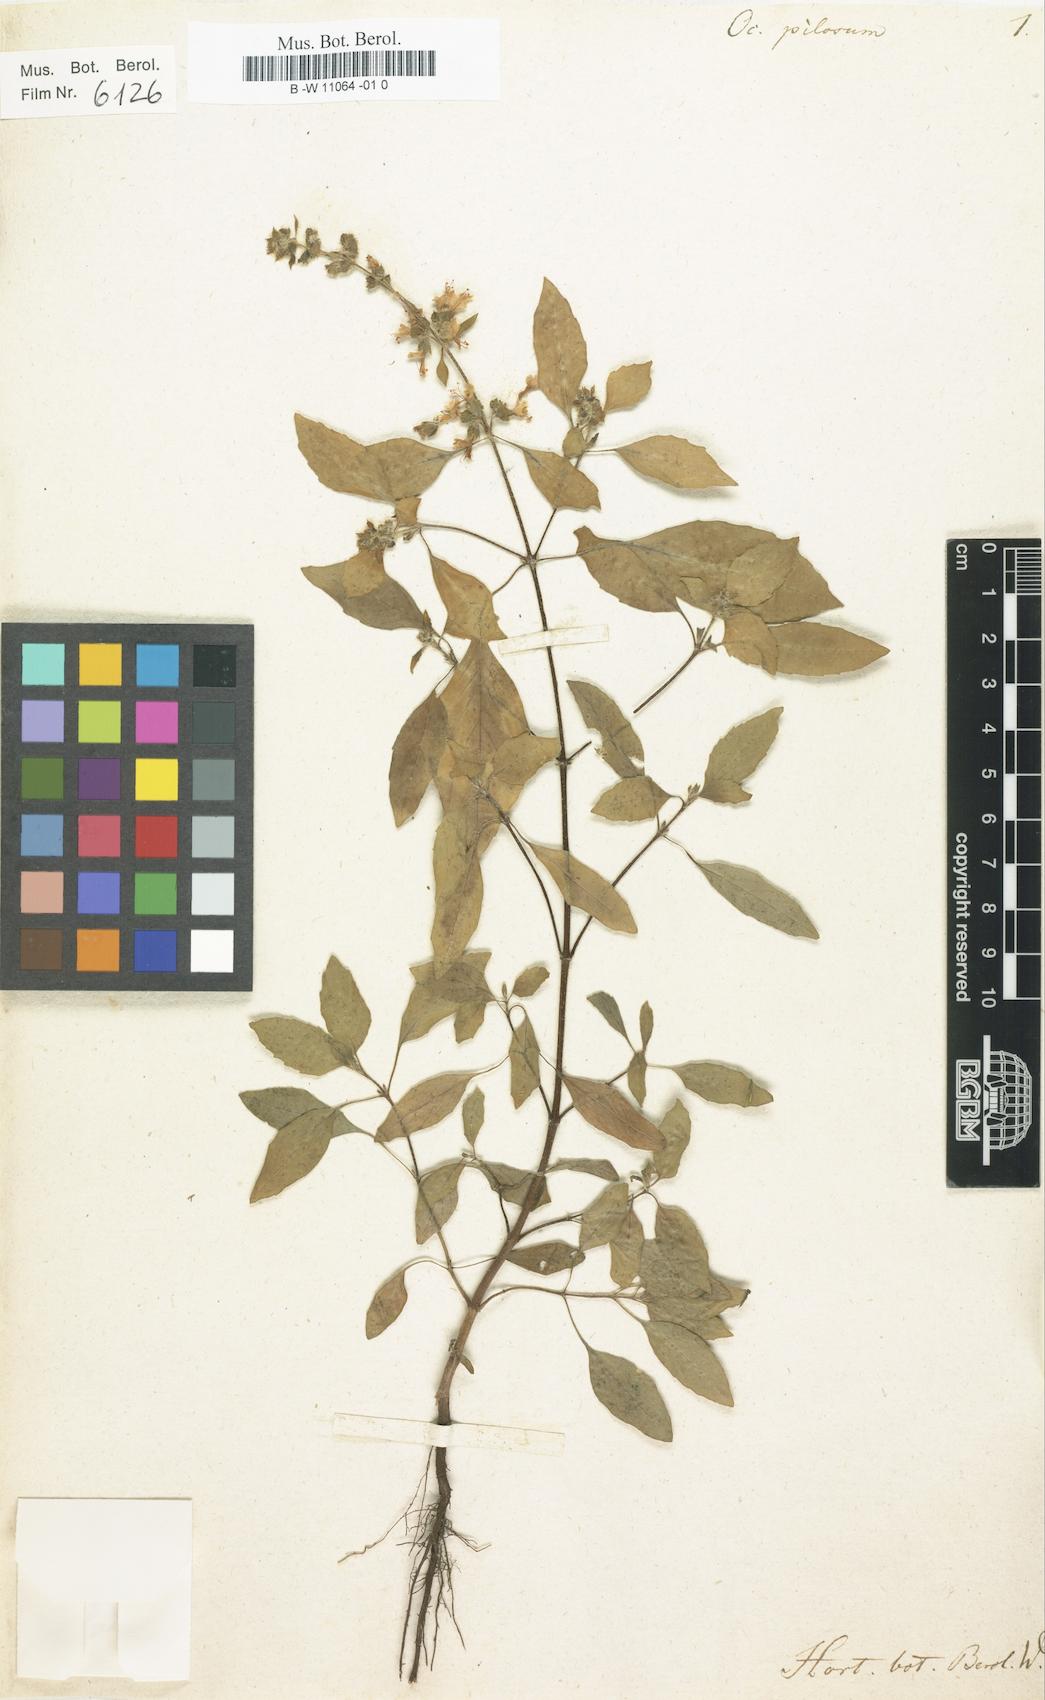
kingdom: Plantae
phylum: Tracheophyta
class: Magnoliopsida
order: Lamiales
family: Lamiaceae
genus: Ocimum
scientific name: Ocimum africanum
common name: Hoary basil
